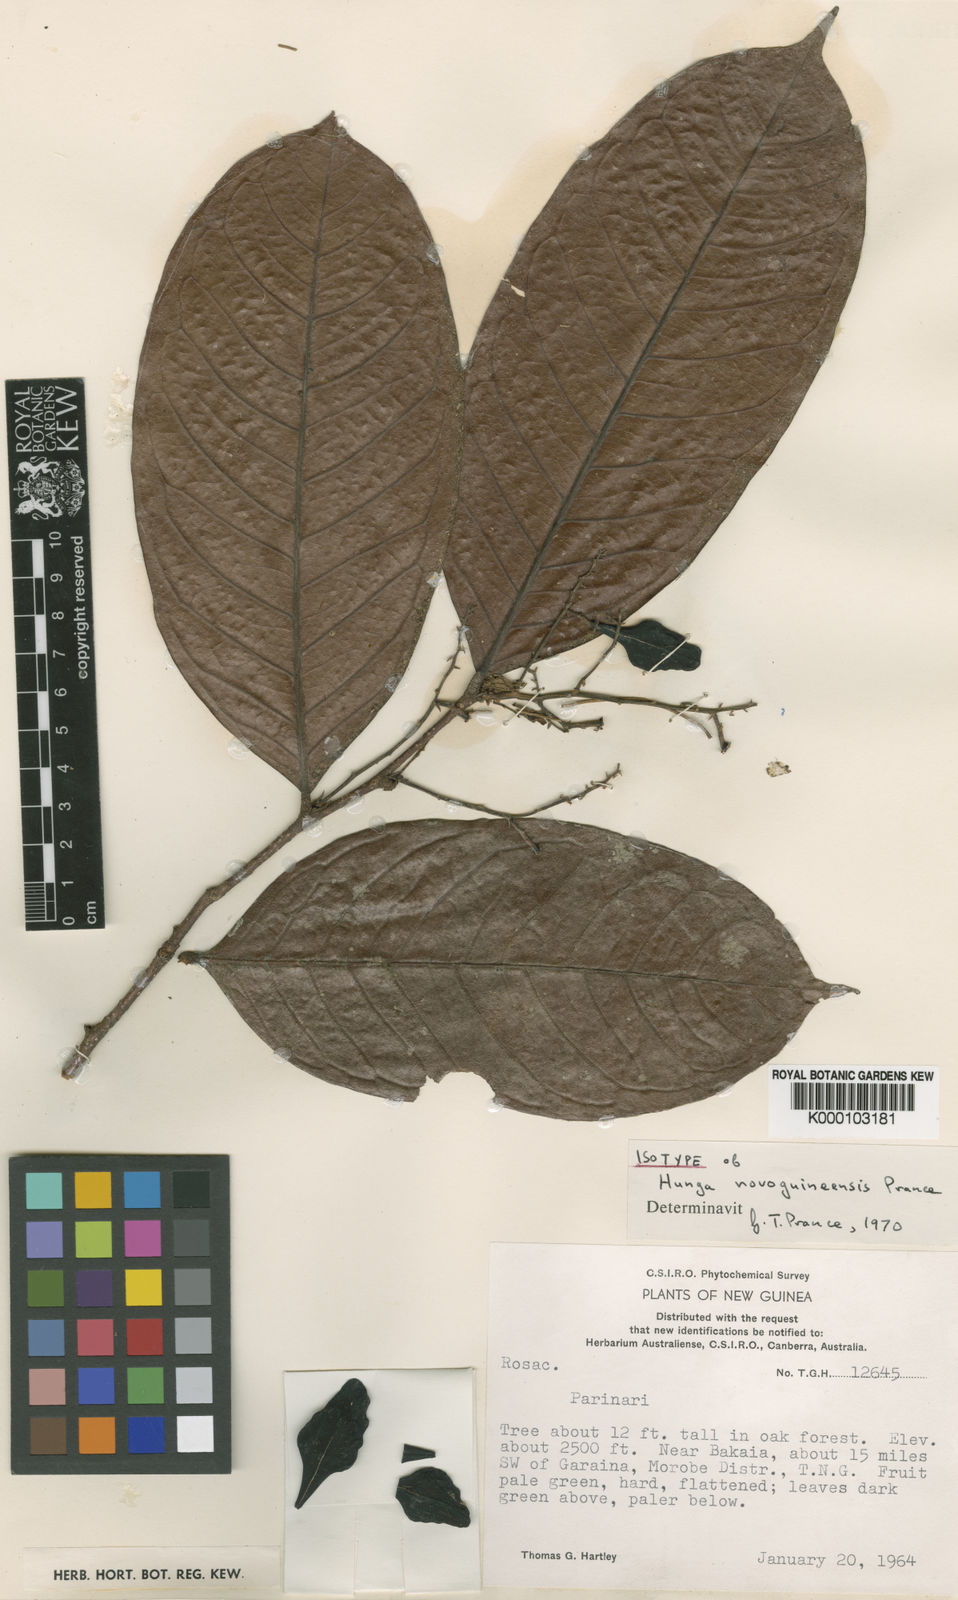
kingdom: Plantae
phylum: Tracheophyta
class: Magnoliopsida
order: Malpighiales
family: Chrysobalanaceae
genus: Hunga
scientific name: Hunga novoguineensis
